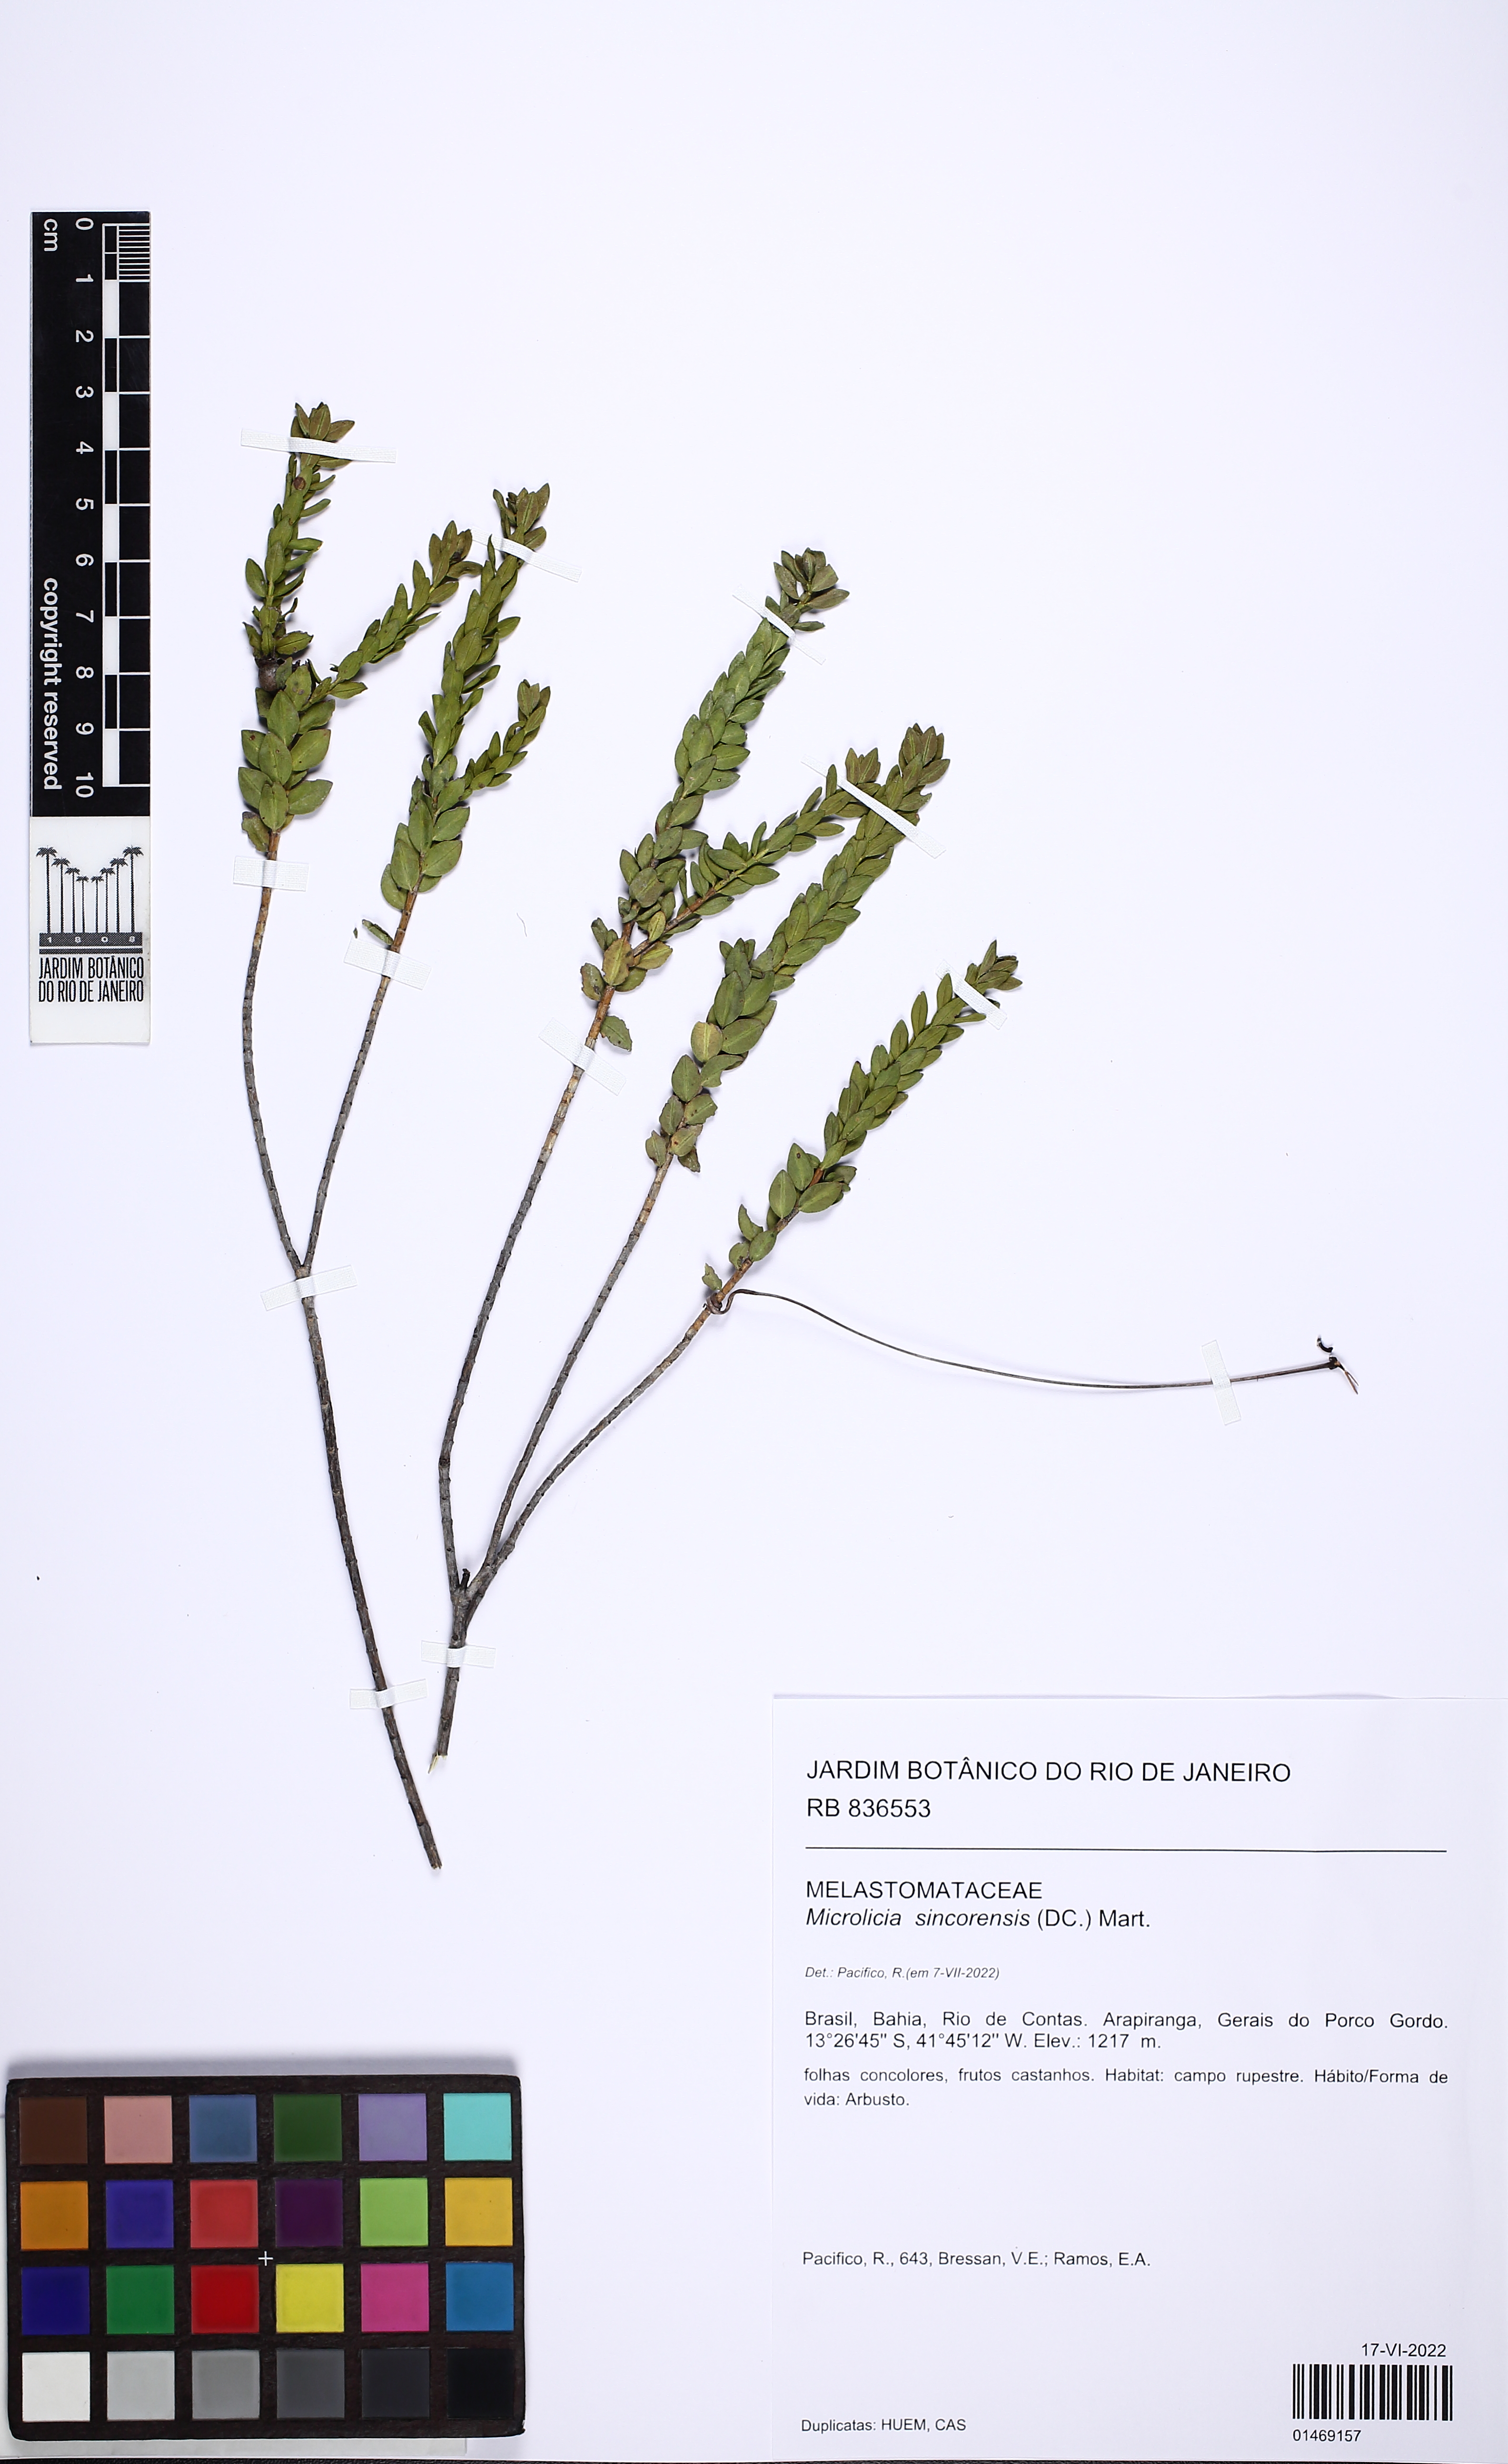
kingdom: Plantae
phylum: Tracheophyta
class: Magnoliopsida
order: Myrtales
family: Melastomataceae
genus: Microlicia
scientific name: Microlicia sincorensis
